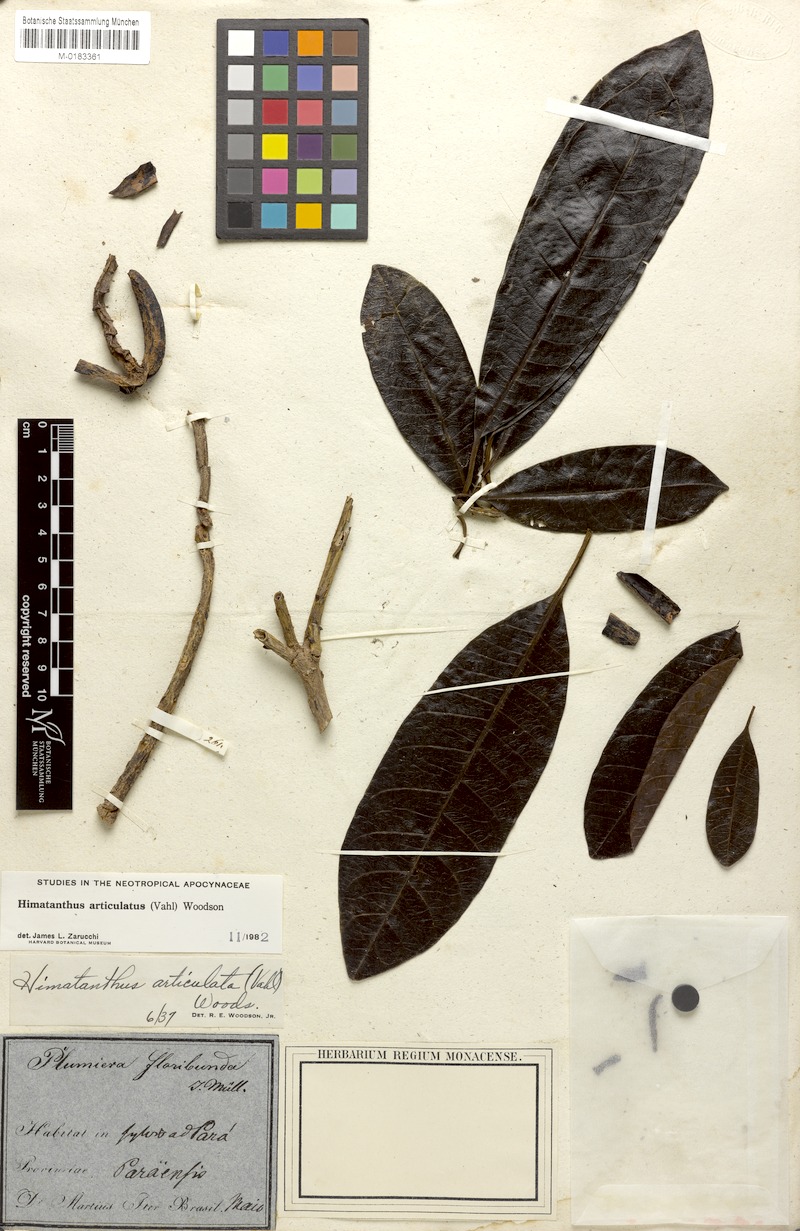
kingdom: Plantae
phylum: Tracheophyta
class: Magnoliopsida
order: Gentianales
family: Apocynaceae
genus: Himatanthus
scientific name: Himatanthus articulatus
